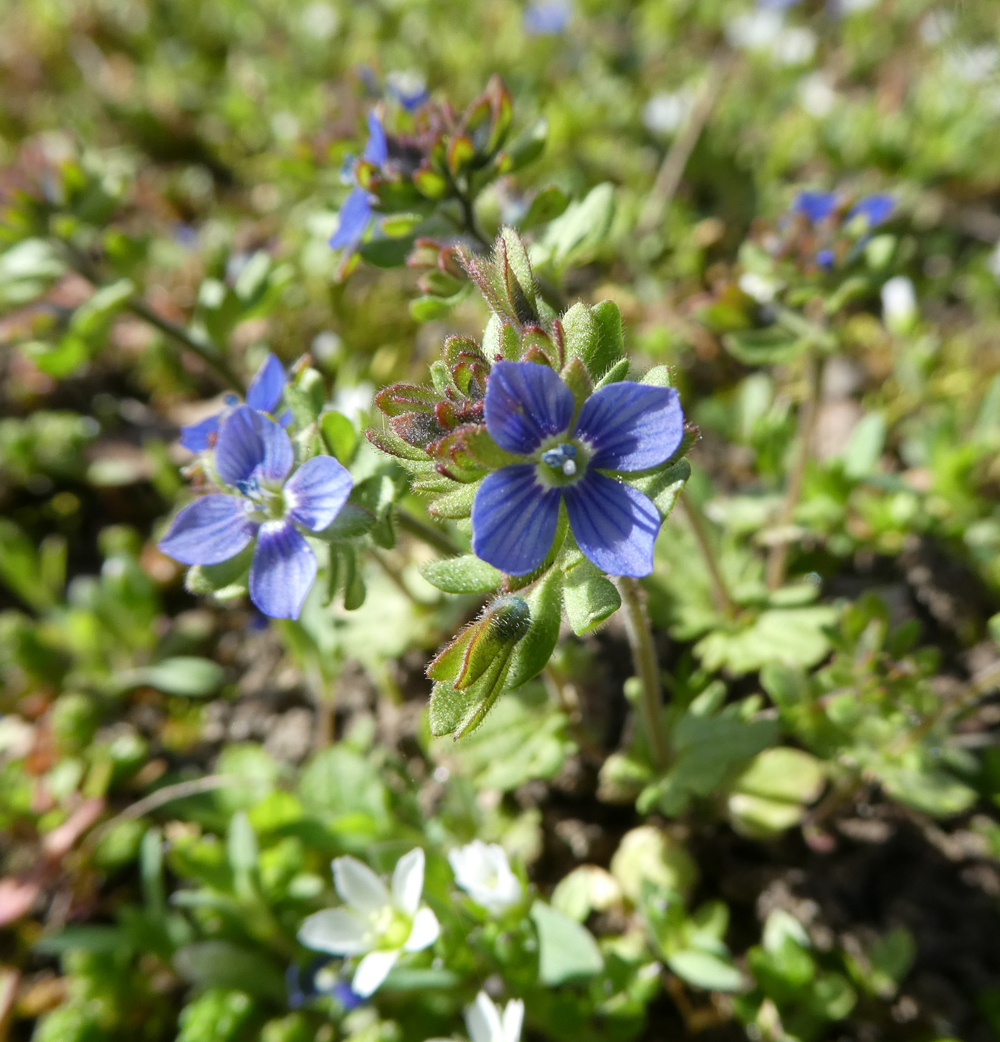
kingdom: Plantae
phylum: Tracheophyta
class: Magnoliopsida
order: Lamiales
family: Plantaginaceae
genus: Veronica
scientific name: Veronica triphyllos
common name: Fingered speedwell
